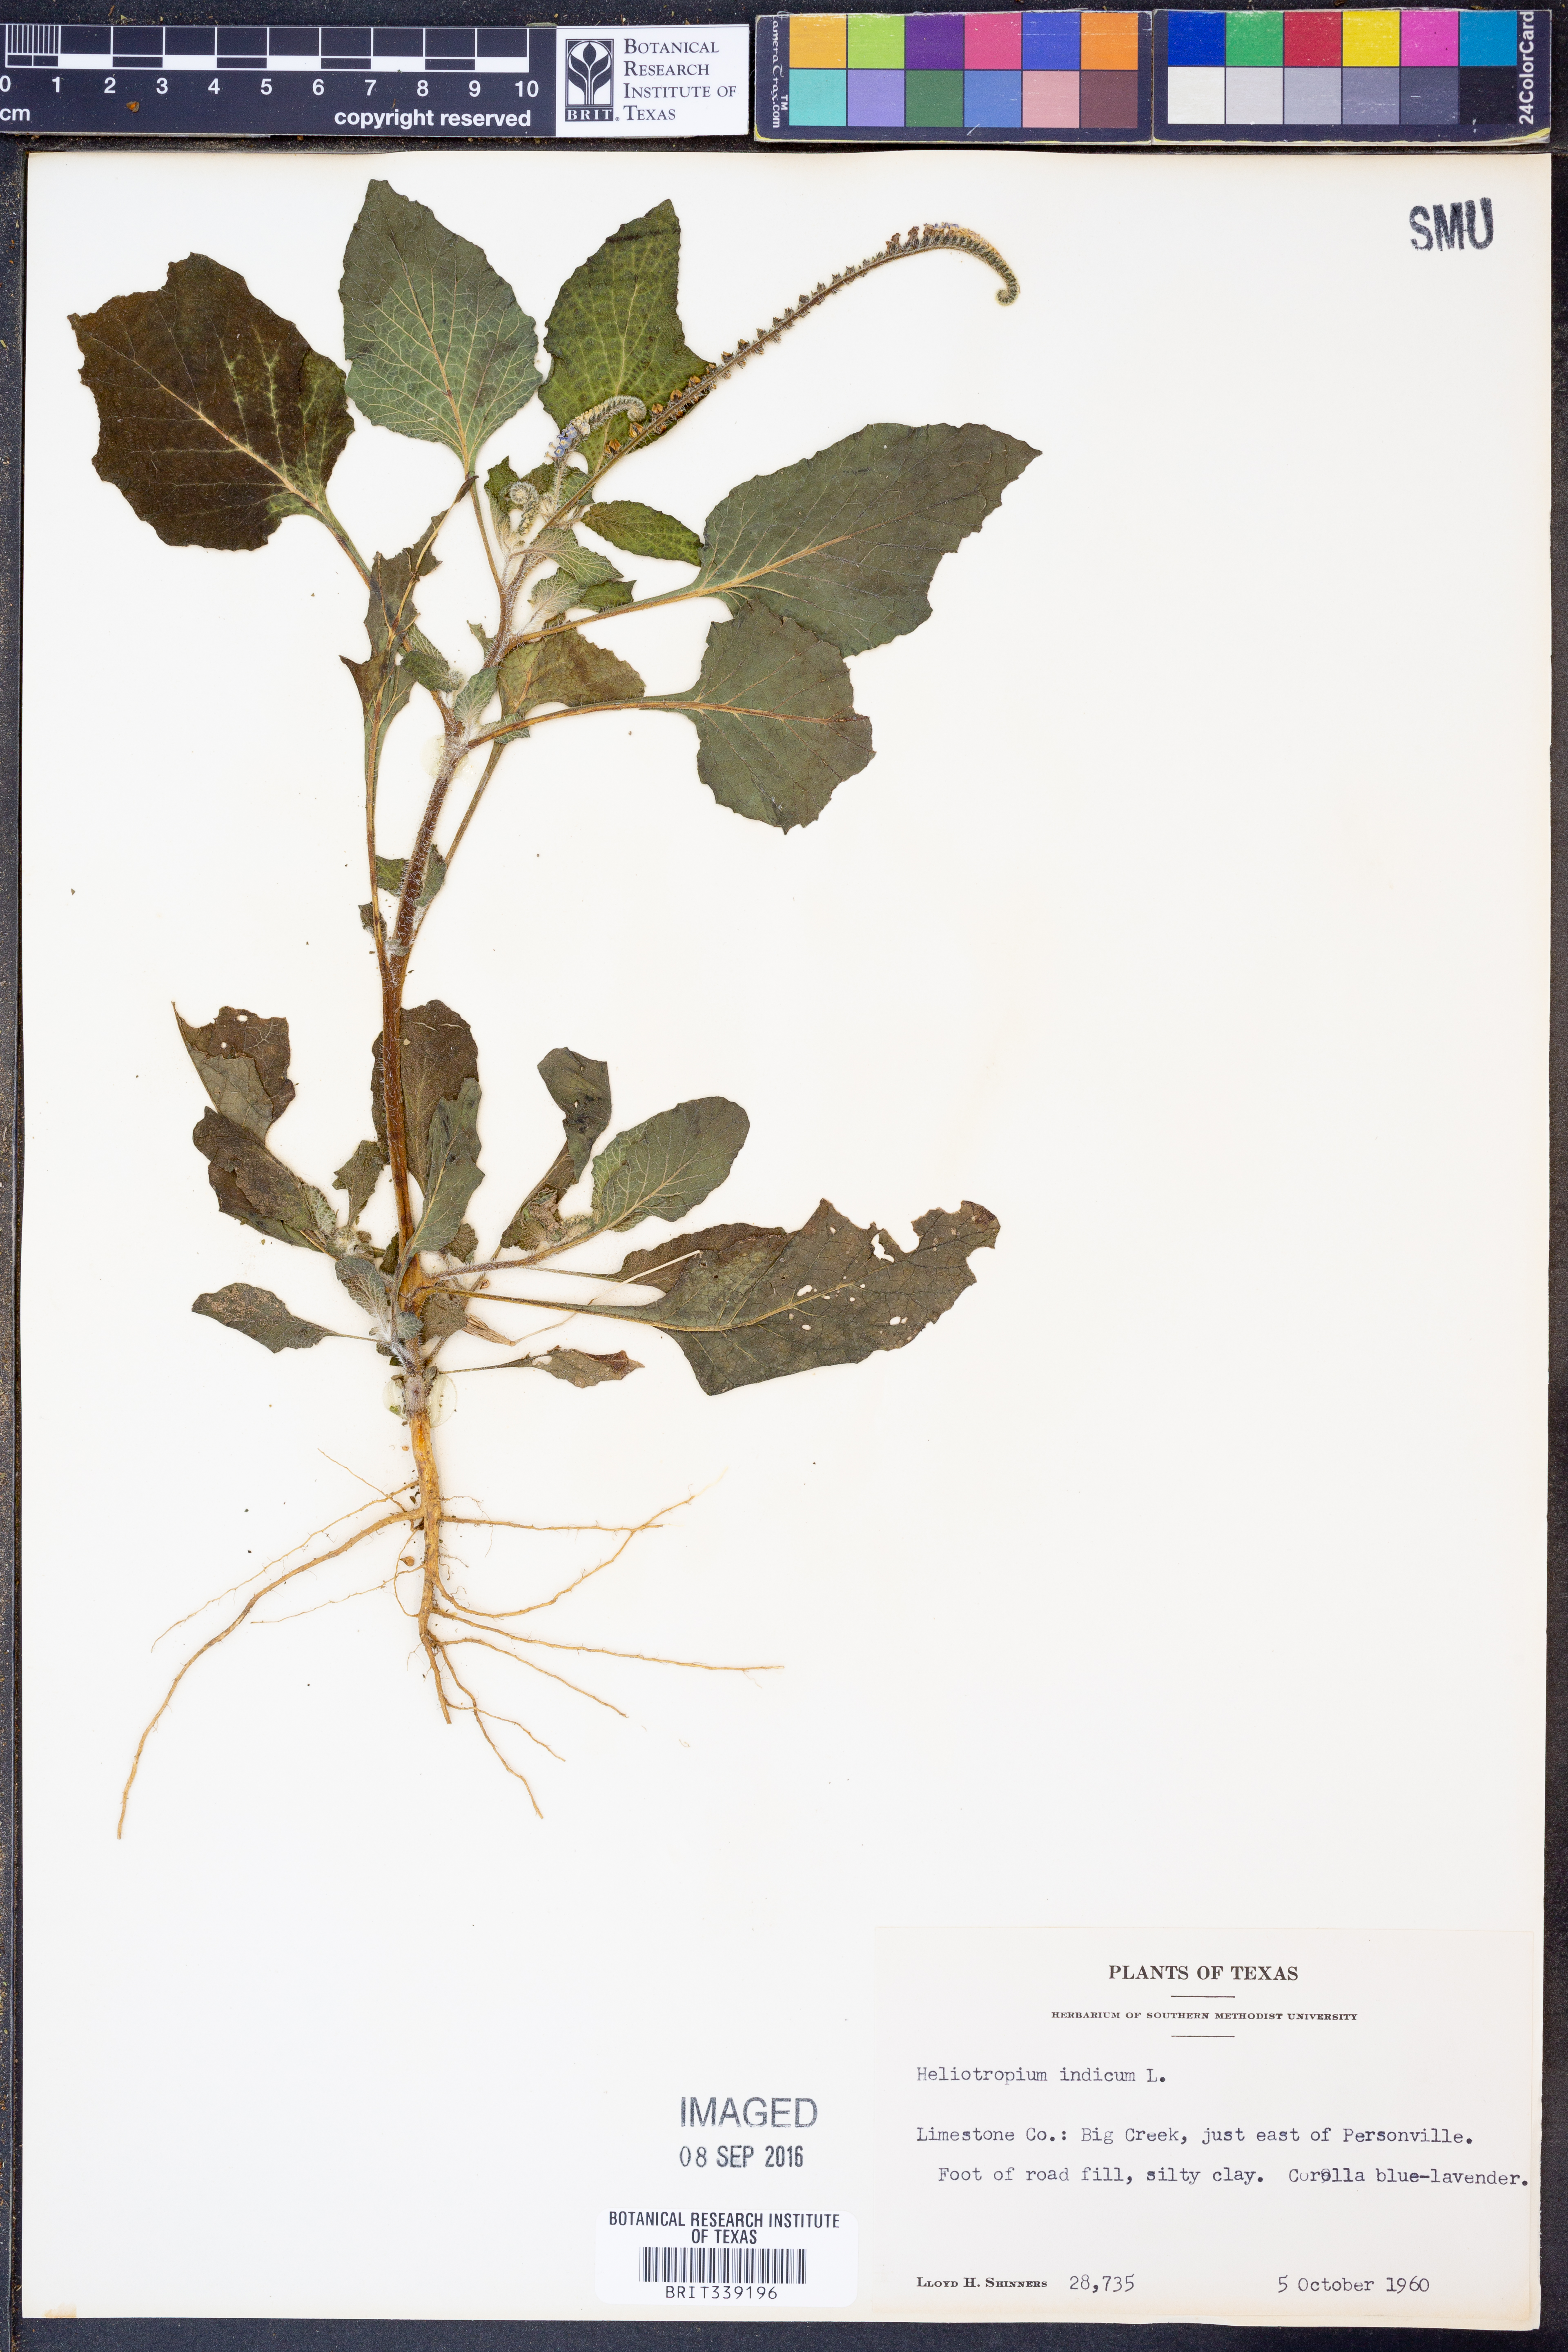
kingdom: Plantae
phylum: Tracheophyta
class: Magnoliopsida
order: Boraginales
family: Heliotropiaceae
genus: Heliotropium
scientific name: Heliotropium indicum
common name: Indian heliotrope
